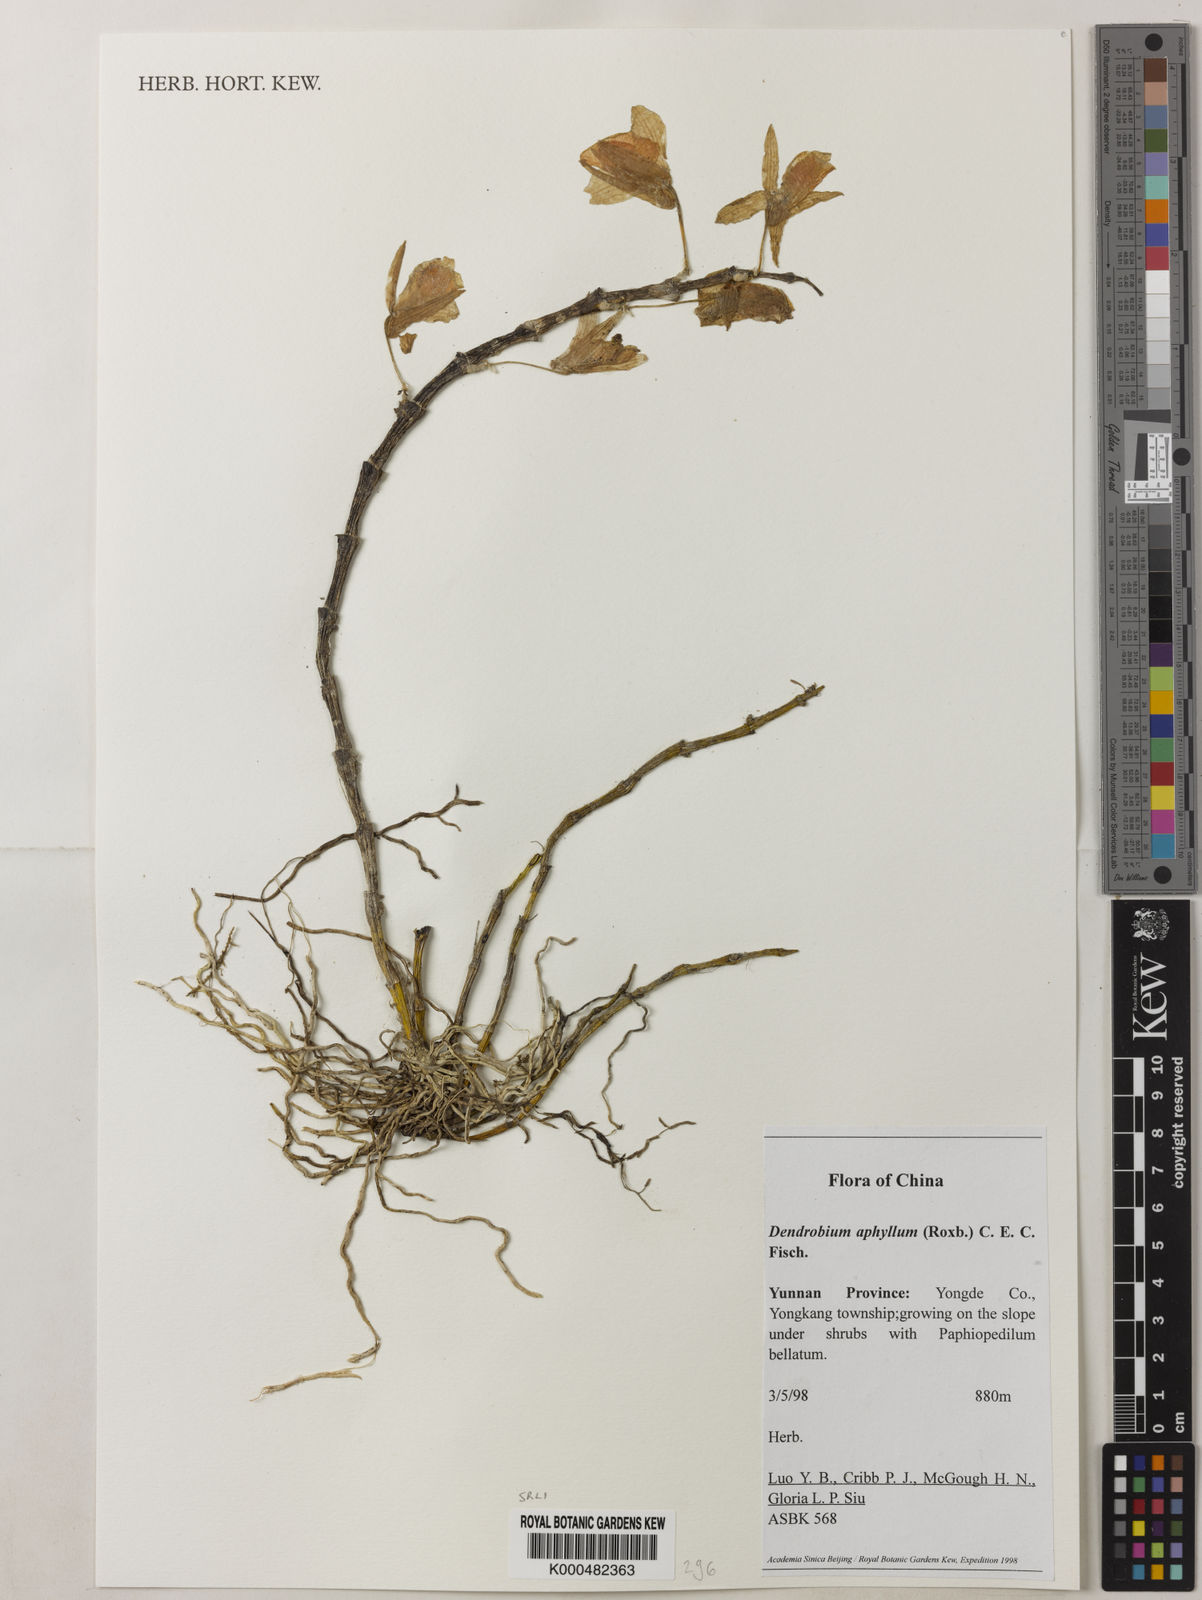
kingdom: Plantae
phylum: Tracheophyta
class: Liliopsida
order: Asparagales
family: Orchidaceae
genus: Dendrobium
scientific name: Dendrobium macrostachyum
